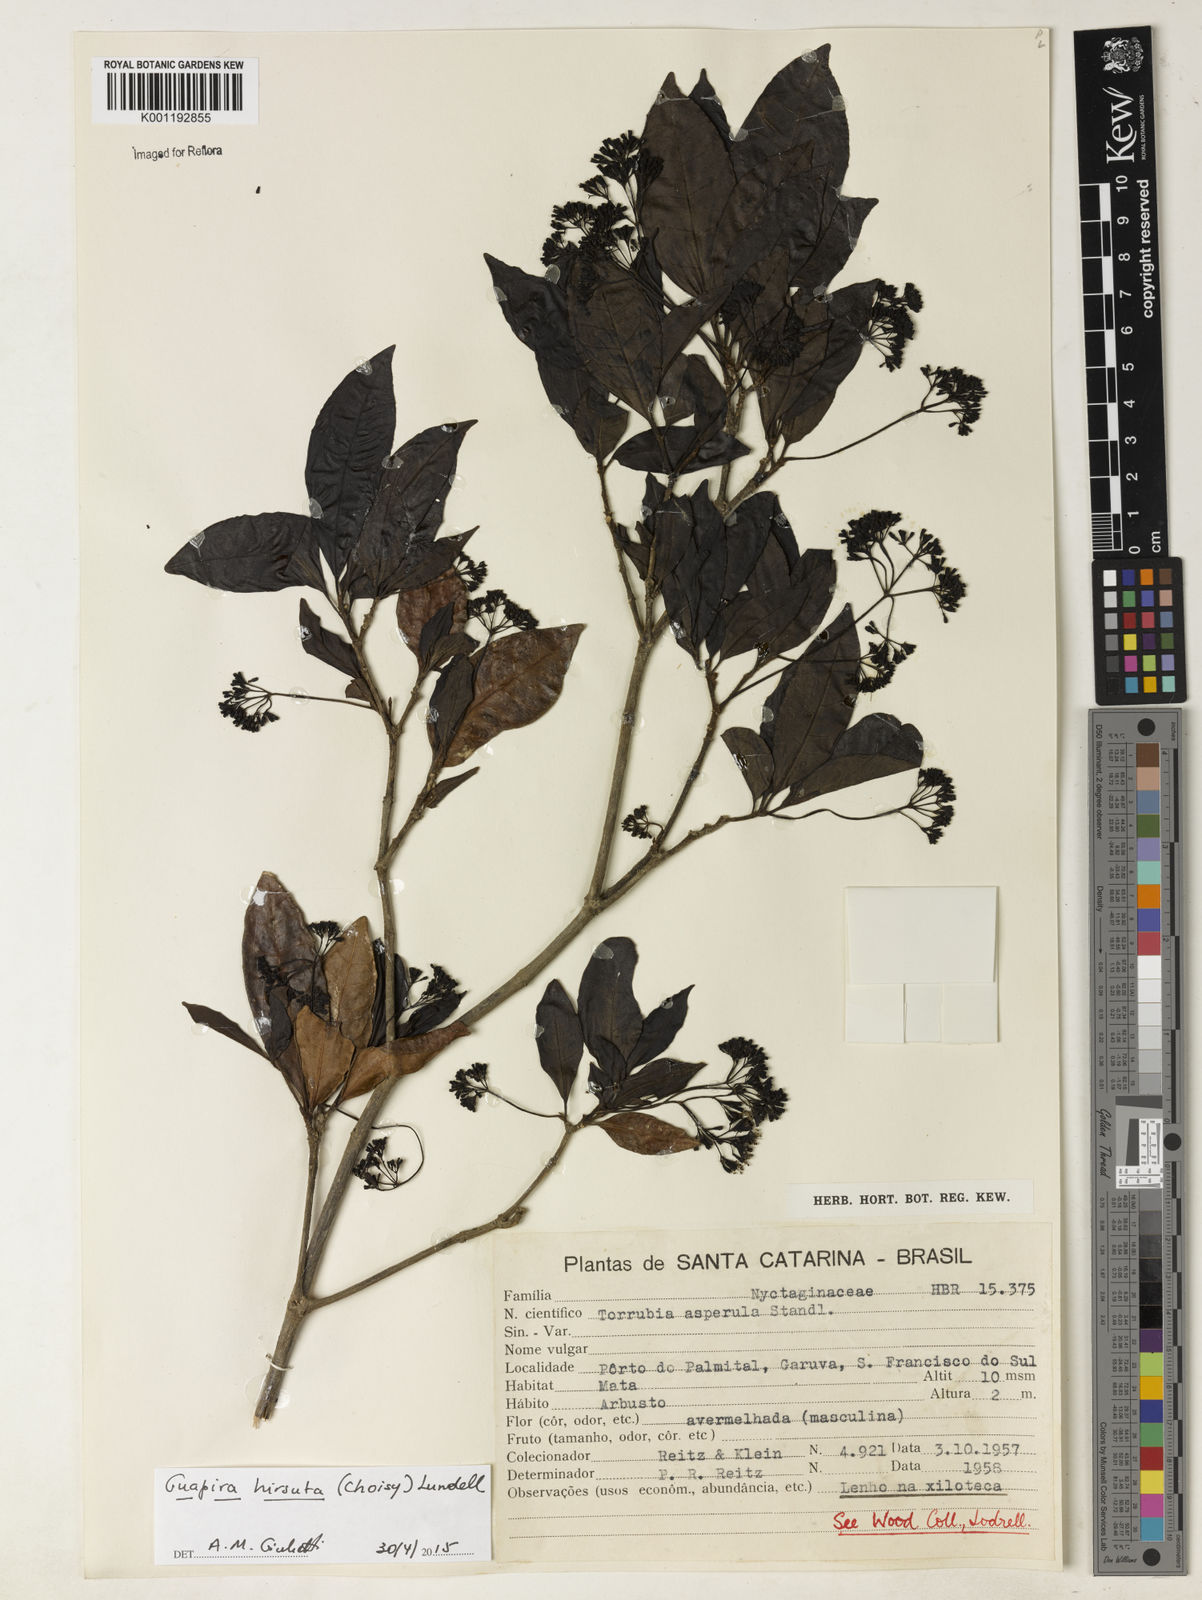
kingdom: Plantae
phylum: Tracheophyta
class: Magnoliopsida
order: Caryophyllales
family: Nyctaginaceae
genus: Guapira
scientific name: Guapira hirsuta
